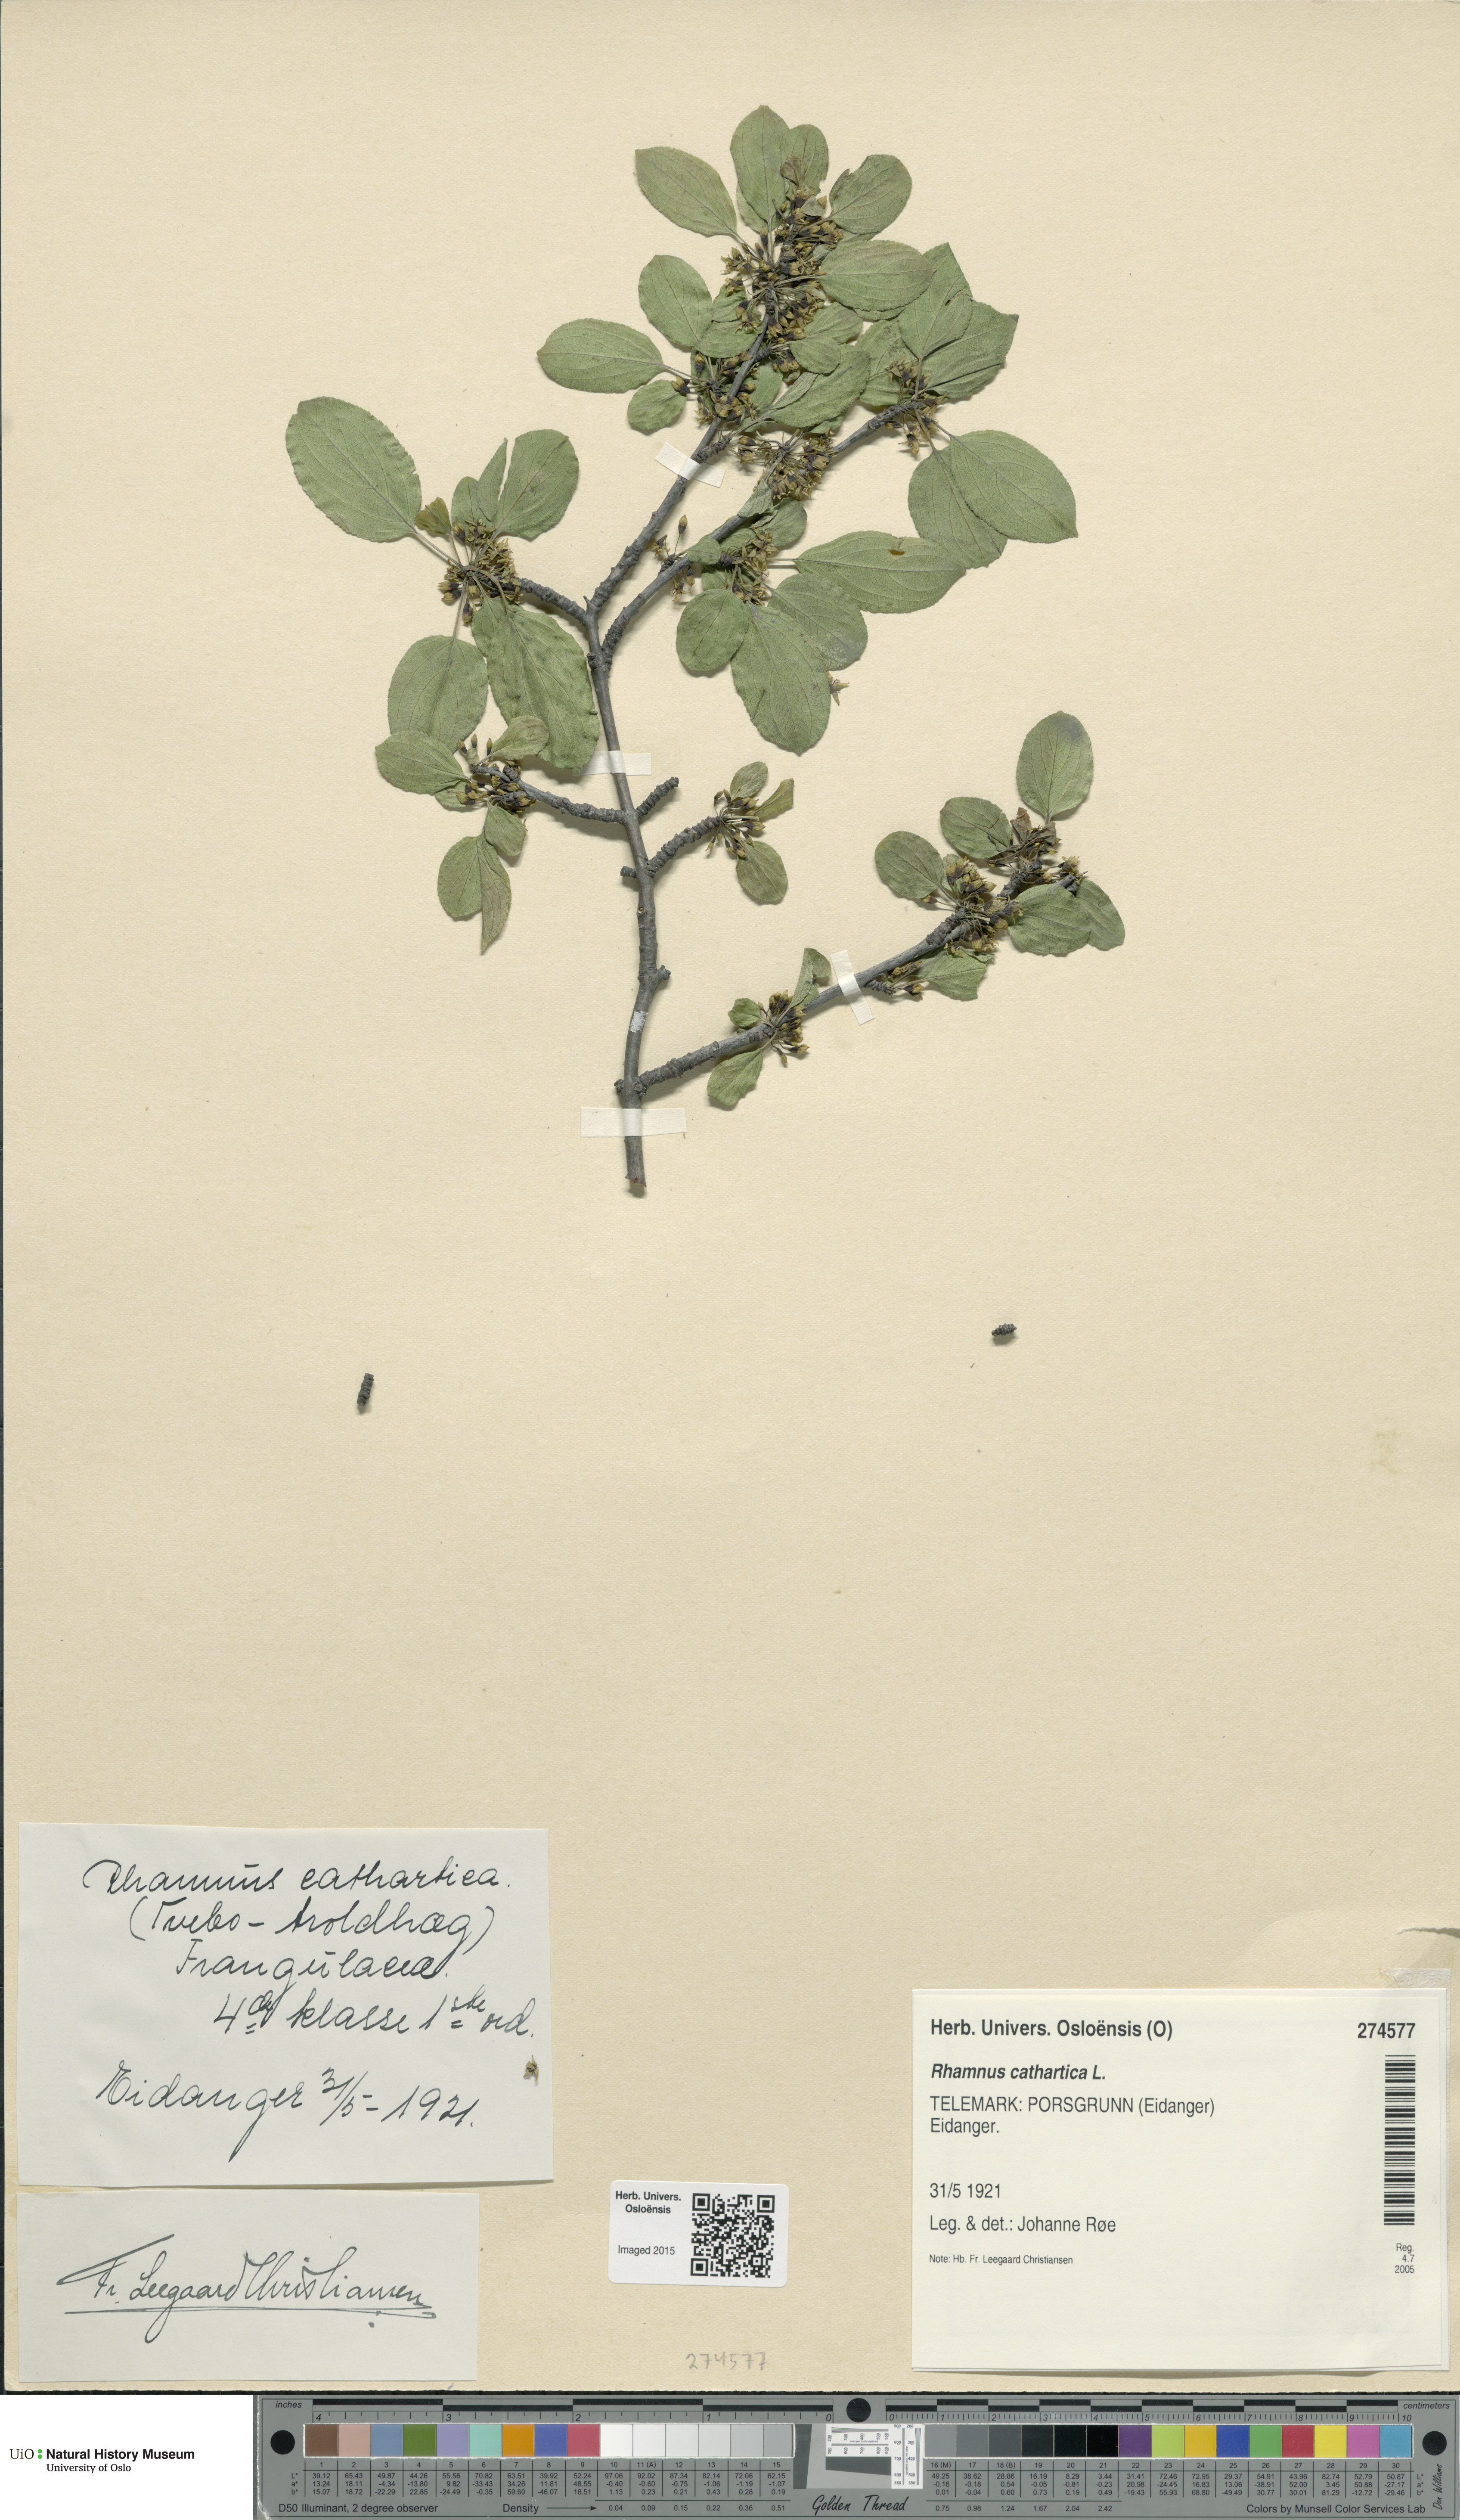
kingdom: Plantae
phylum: Tracheophyta
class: Magnoliopsida
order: Rosales
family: Rhamnaceae
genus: Rhamnus
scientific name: Rhamnus cathartica
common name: Common buckthorn
